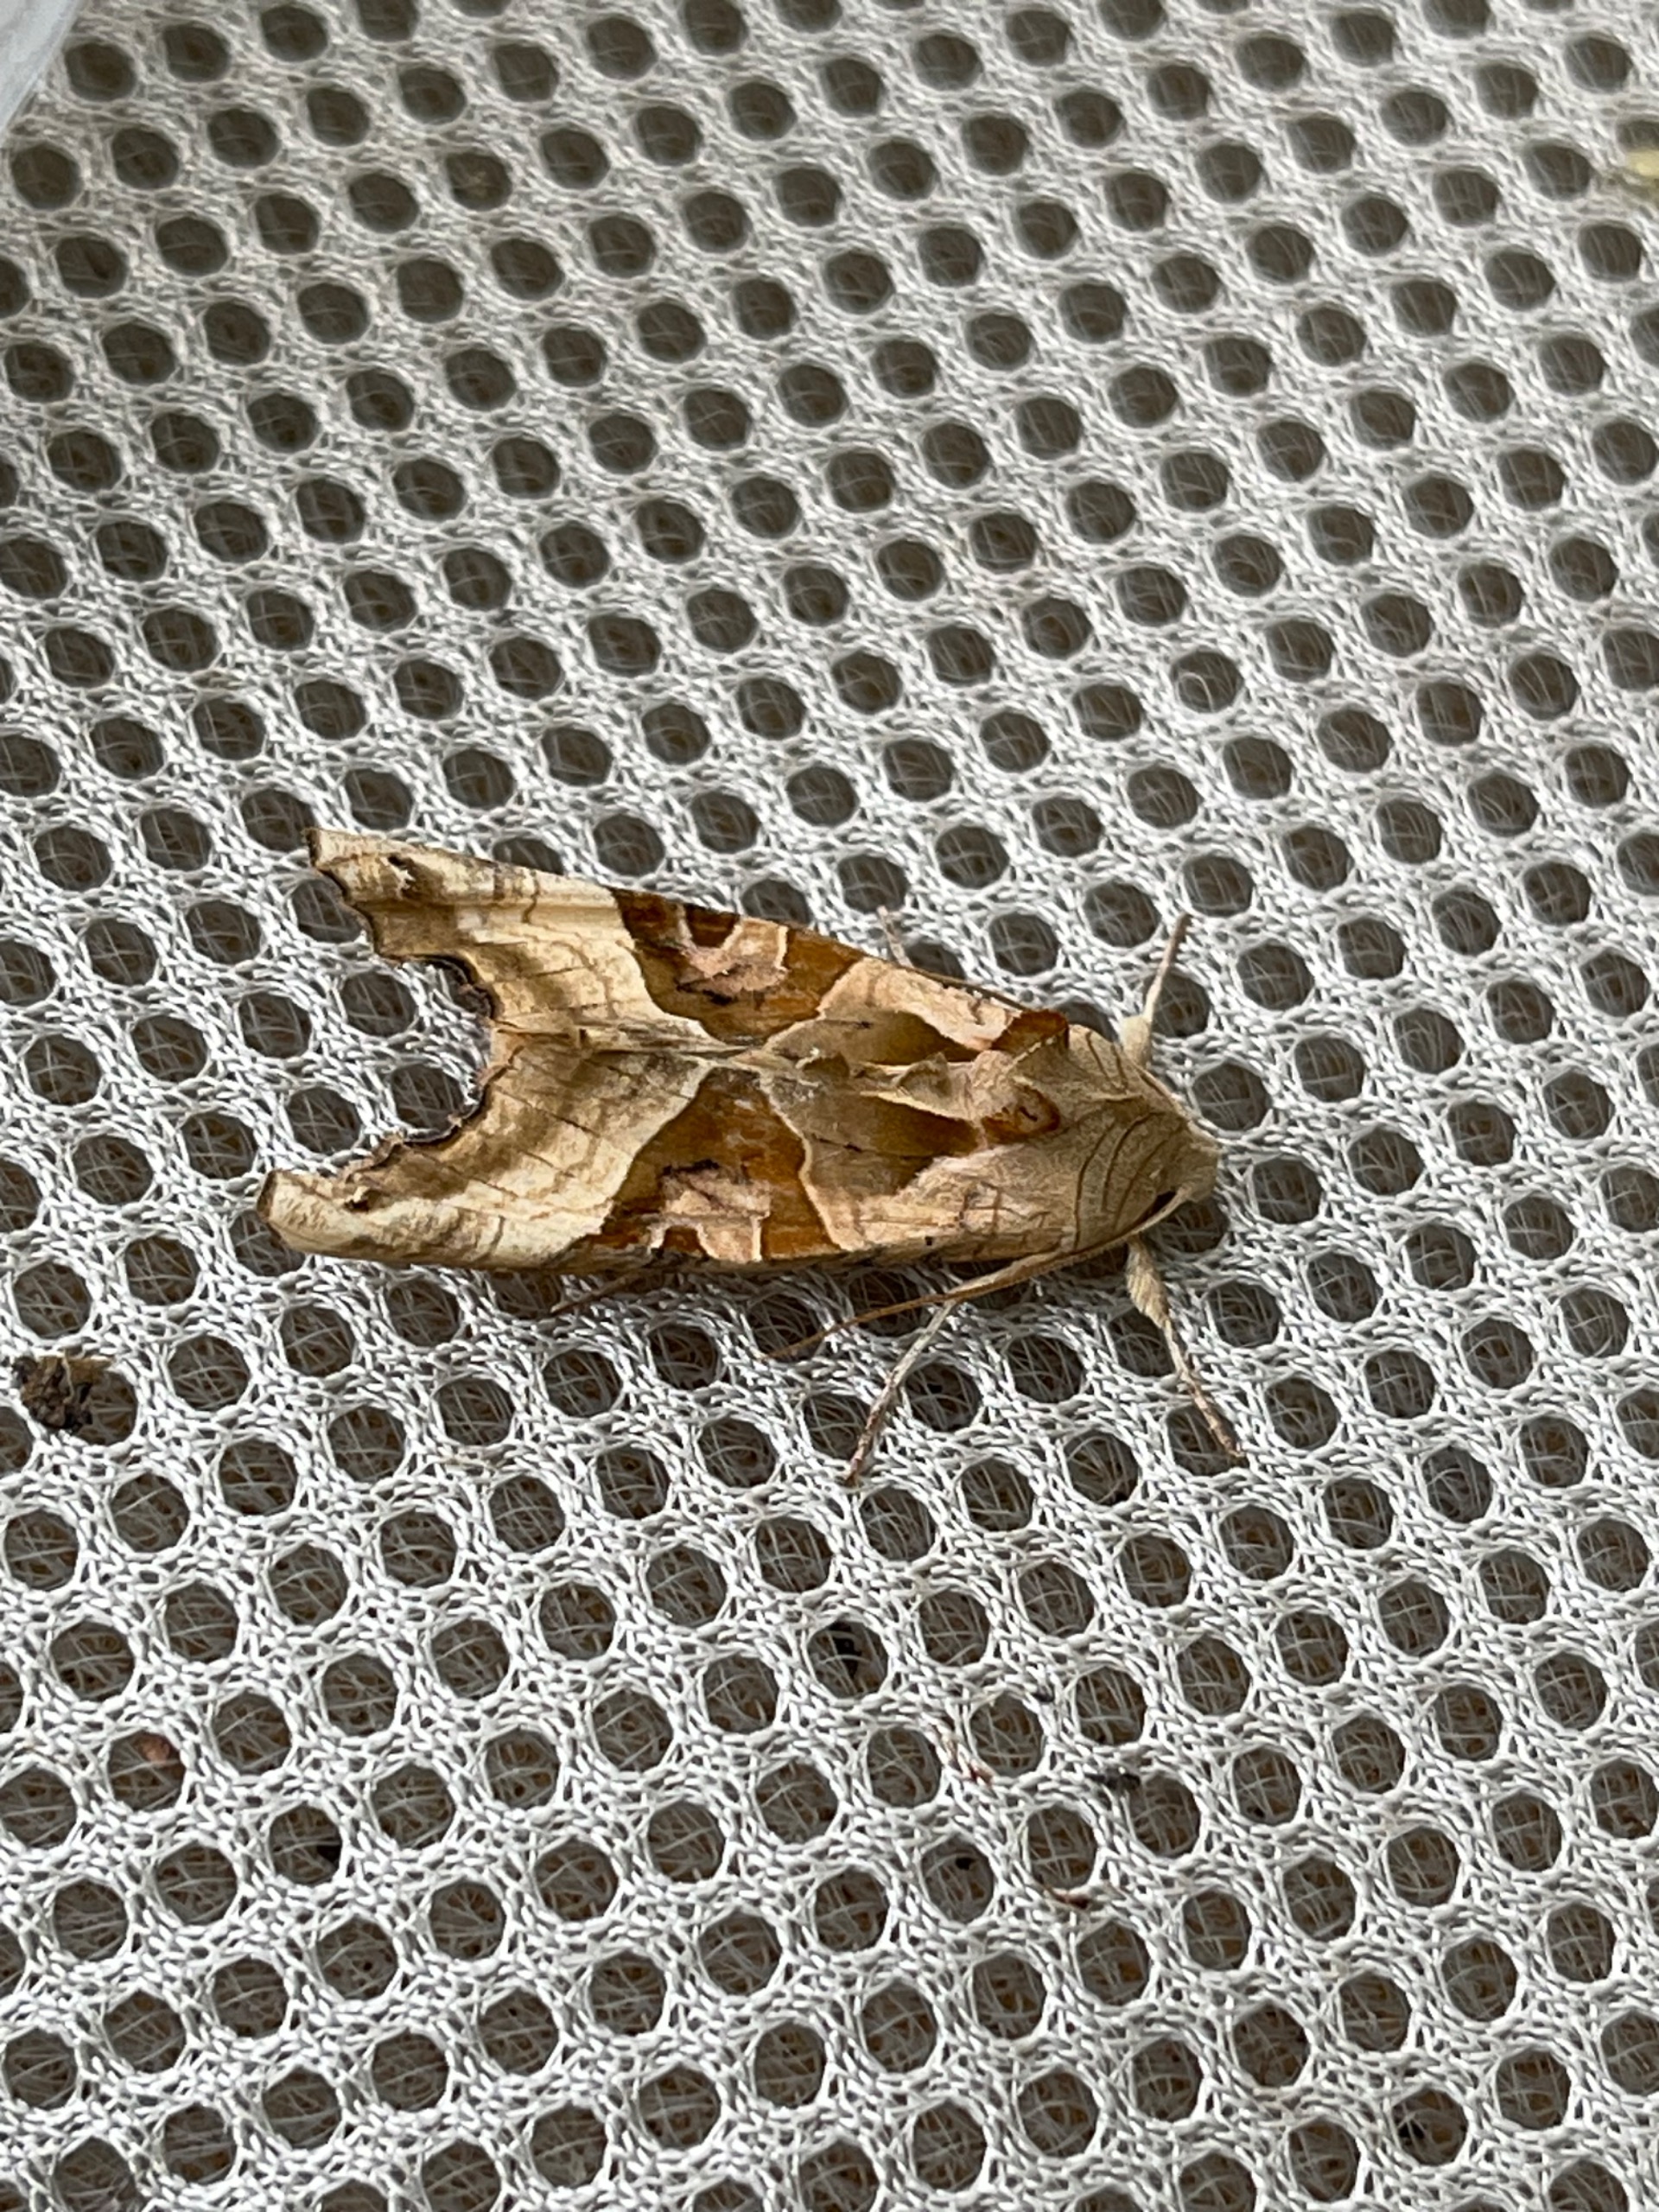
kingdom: Animalia
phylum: Arthropoda
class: Insecta
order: Lepidoptera
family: Noctuidae
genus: Phlogophora
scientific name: Phlogophora meticulosa
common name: Agatugle
